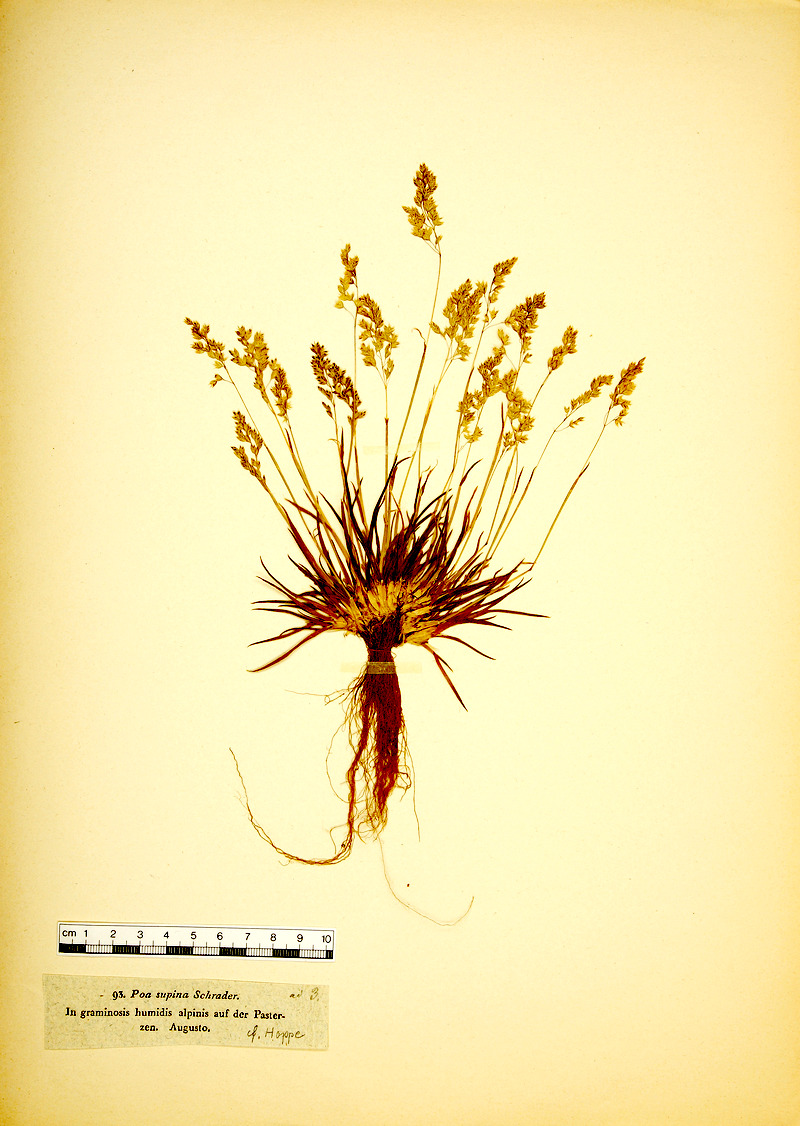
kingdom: Plantae
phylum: Tracheophyta
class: Liliopsida
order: Poales
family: Poaceae
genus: Poa
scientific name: Poa supina
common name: Supina bluegrass
